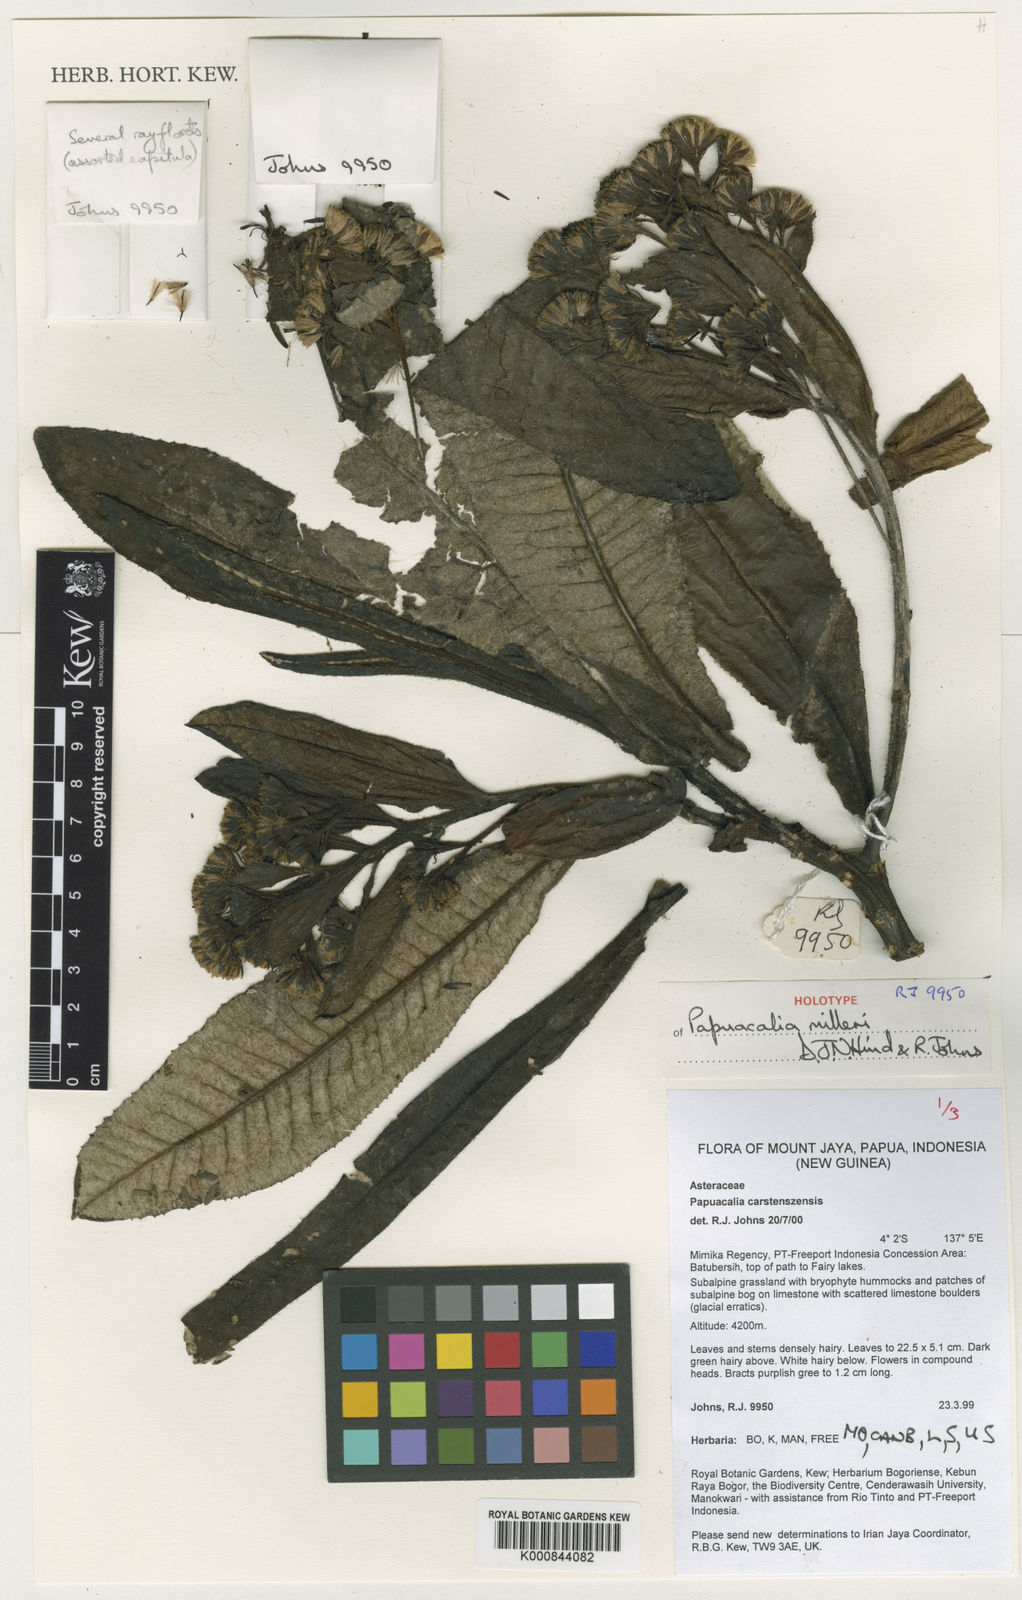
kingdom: Plantae
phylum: Tracheophyta
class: Magnoliopsida
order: Asterales
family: Asteraceae
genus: Papuacalia
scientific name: Papuacalia milleri
